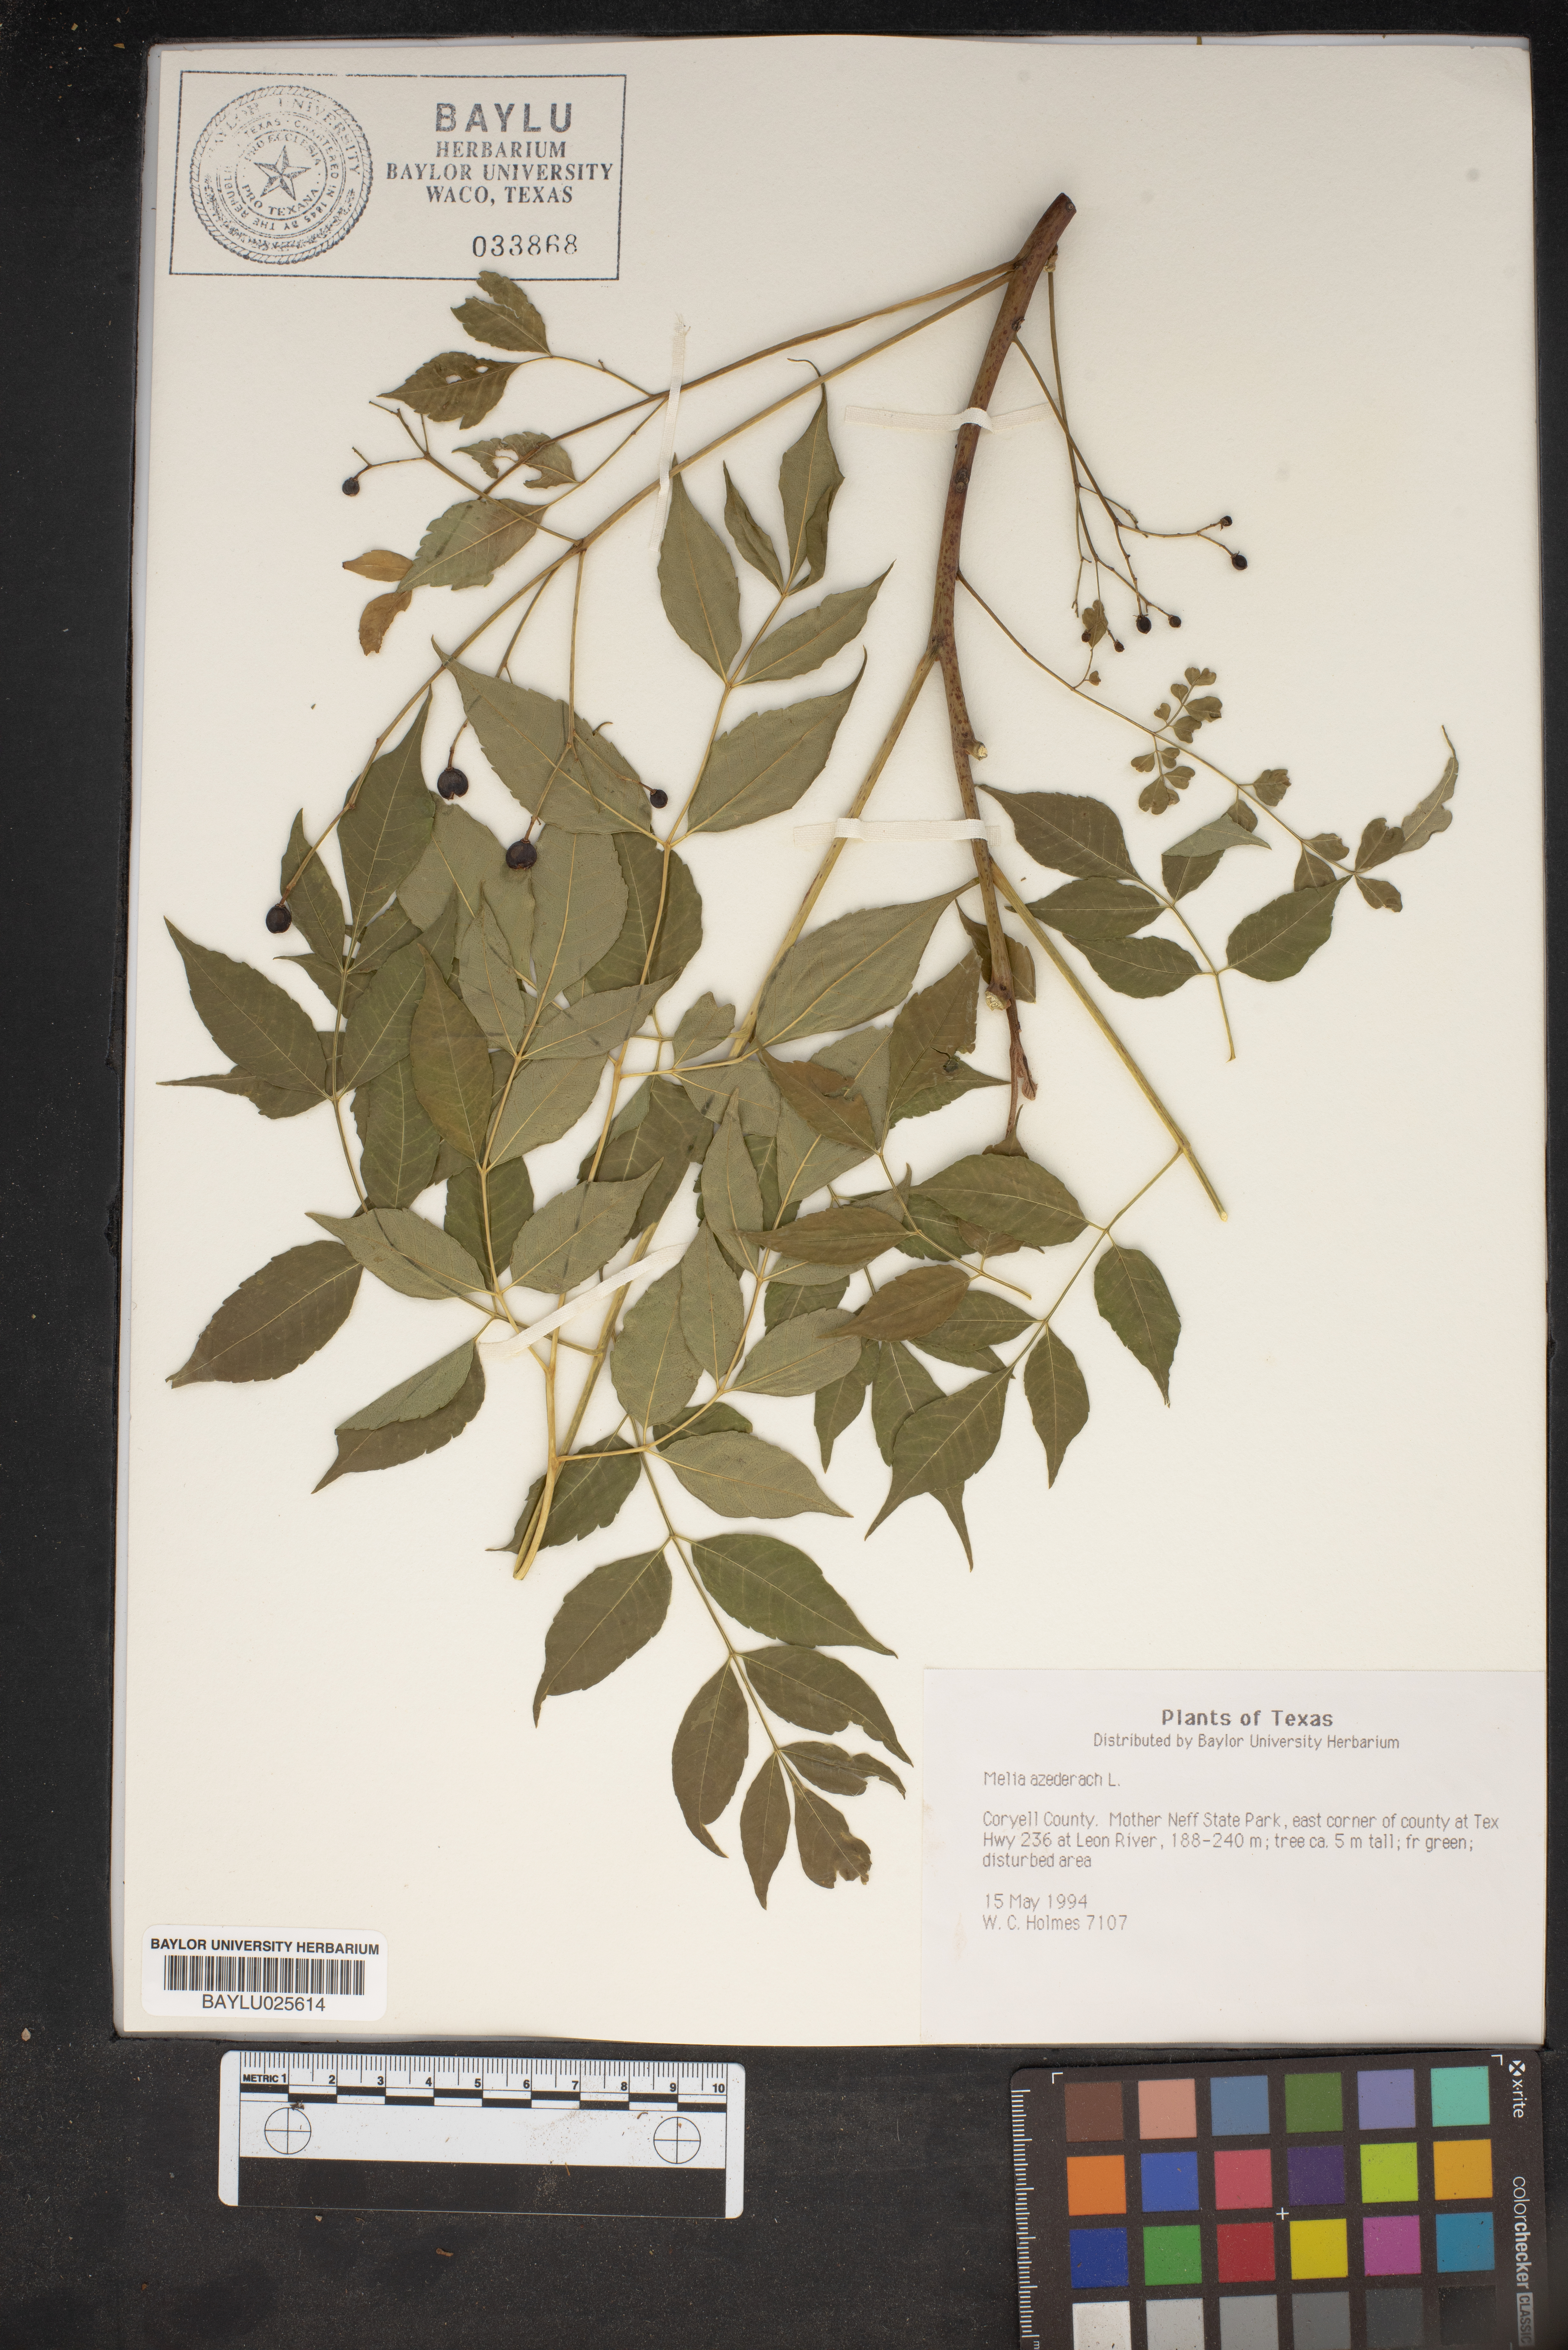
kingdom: Plantae
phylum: Tracheophyta
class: Magnoliopsida
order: Sapindales
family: Meliaceae
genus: Melia
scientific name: Melia azedarach
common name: Chinaberrytree
